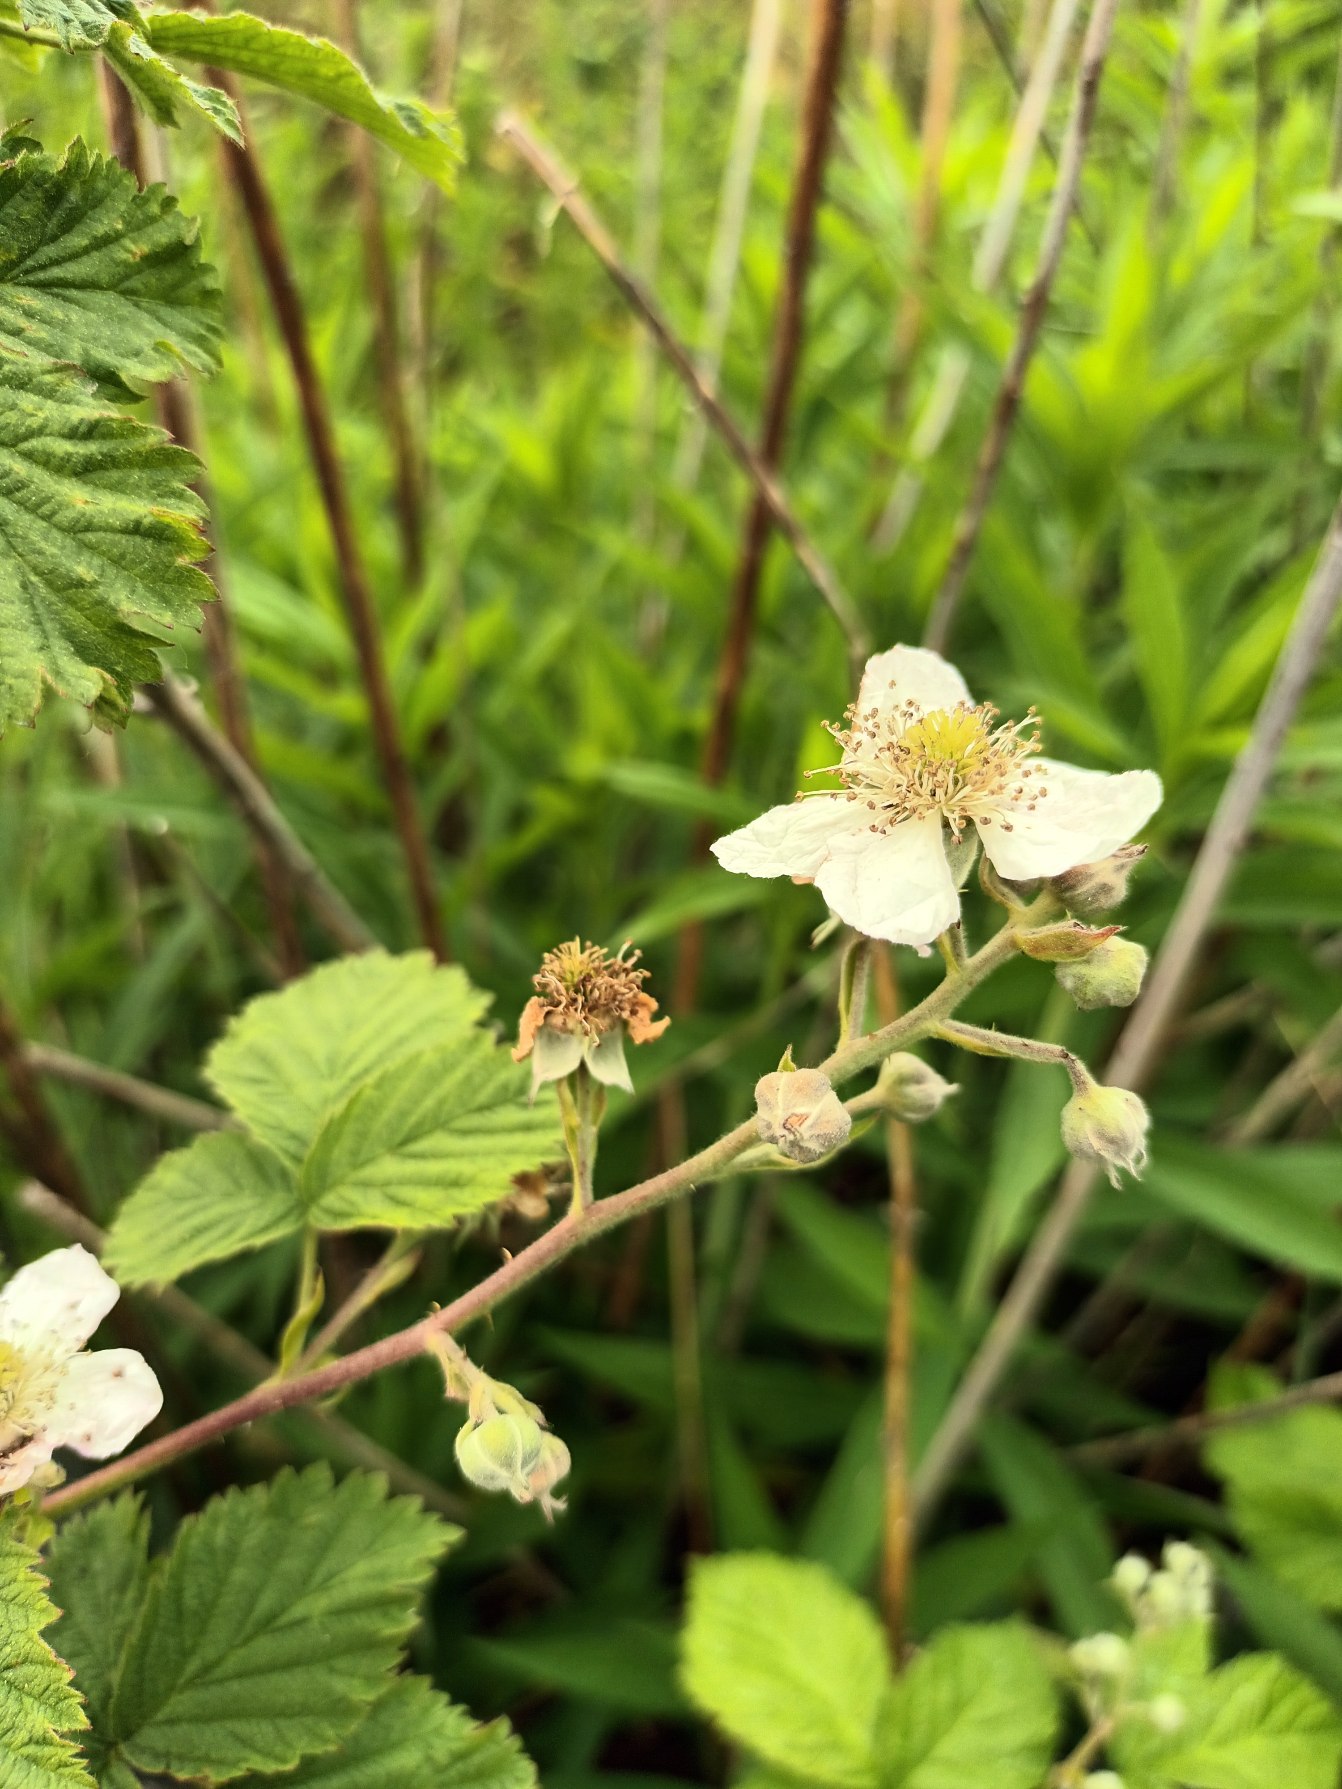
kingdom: Plantae
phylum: Tracheophyta
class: Magnoliopsida
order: Rosales
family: Rosaceae
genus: Rubus
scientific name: Rubus
